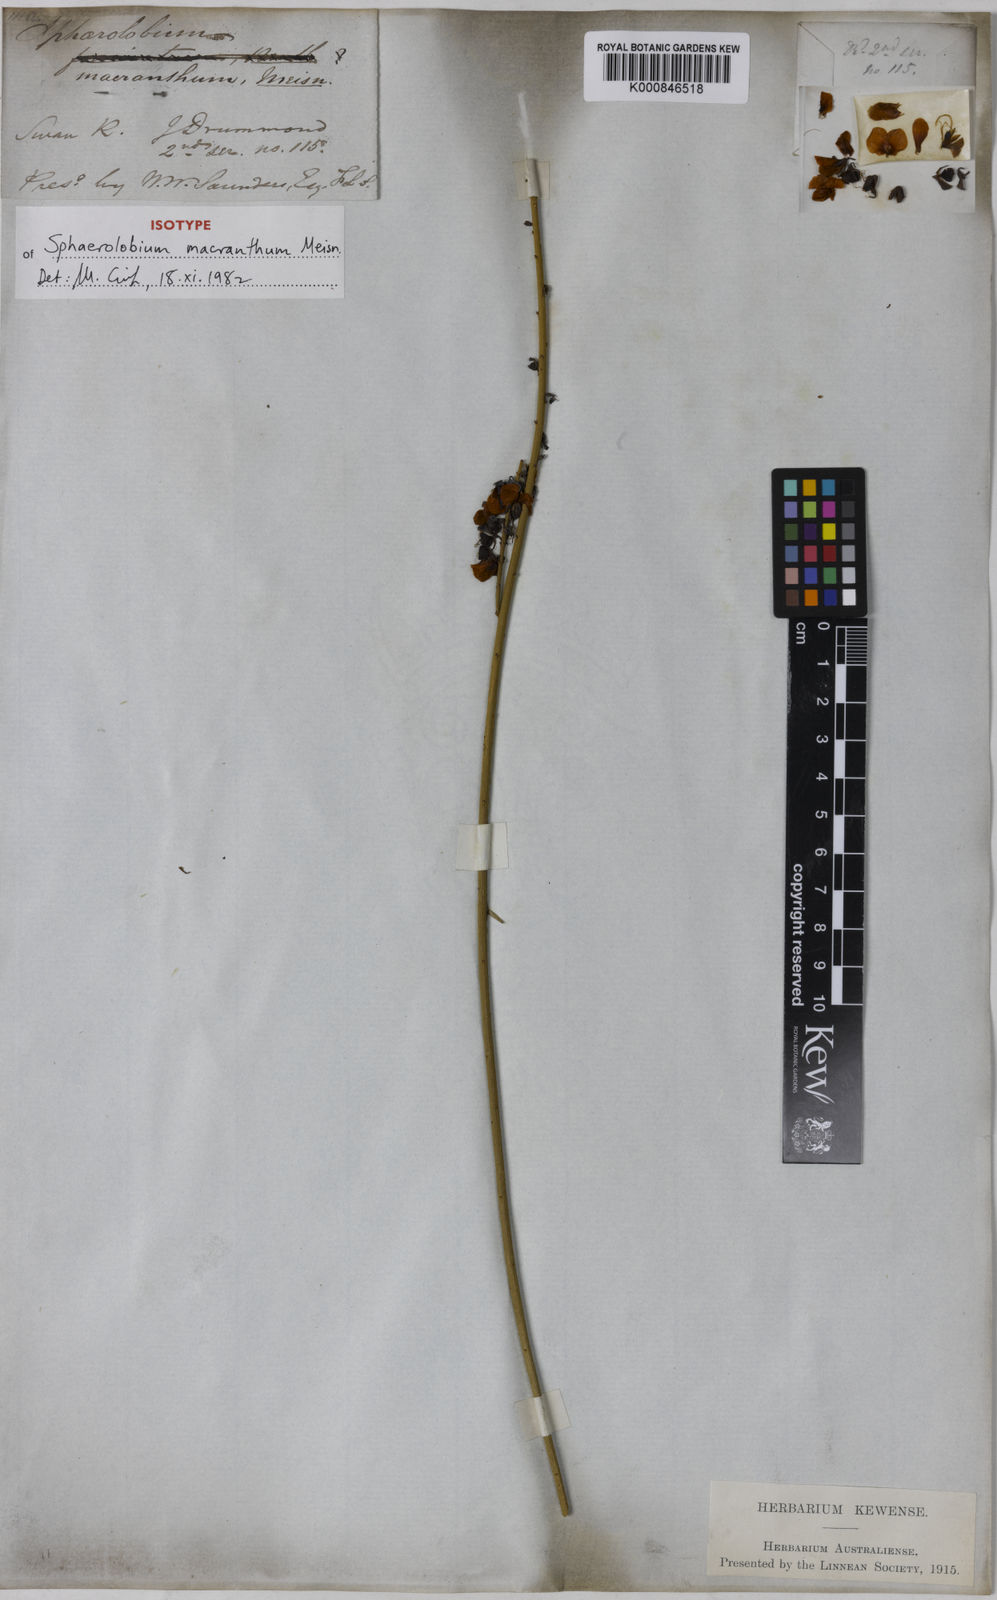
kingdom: Plantae
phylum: Tracheophyta
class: Magnoliopsida
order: Fabales
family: Fabaceae
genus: Sphaerolobium
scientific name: Sphaerolobium macranthum
